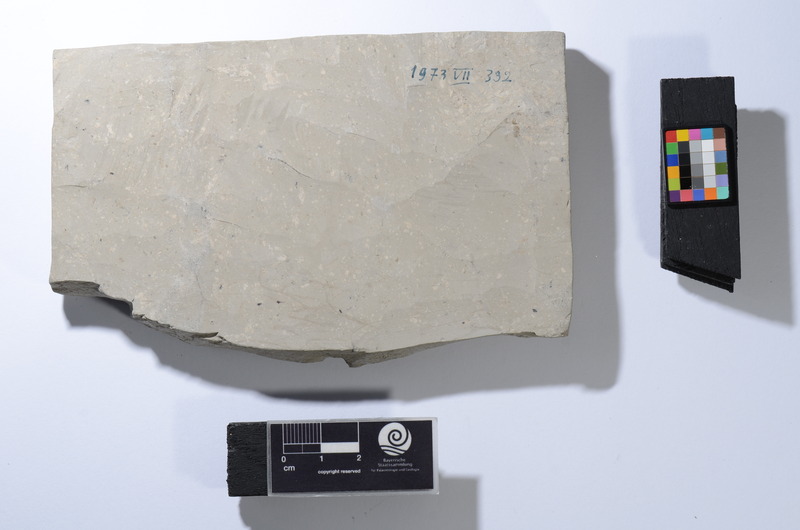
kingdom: Animalia
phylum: Chordata
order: Clupeiformes
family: Clupeidae
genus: Clupea
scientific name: Clupea ventricosa
